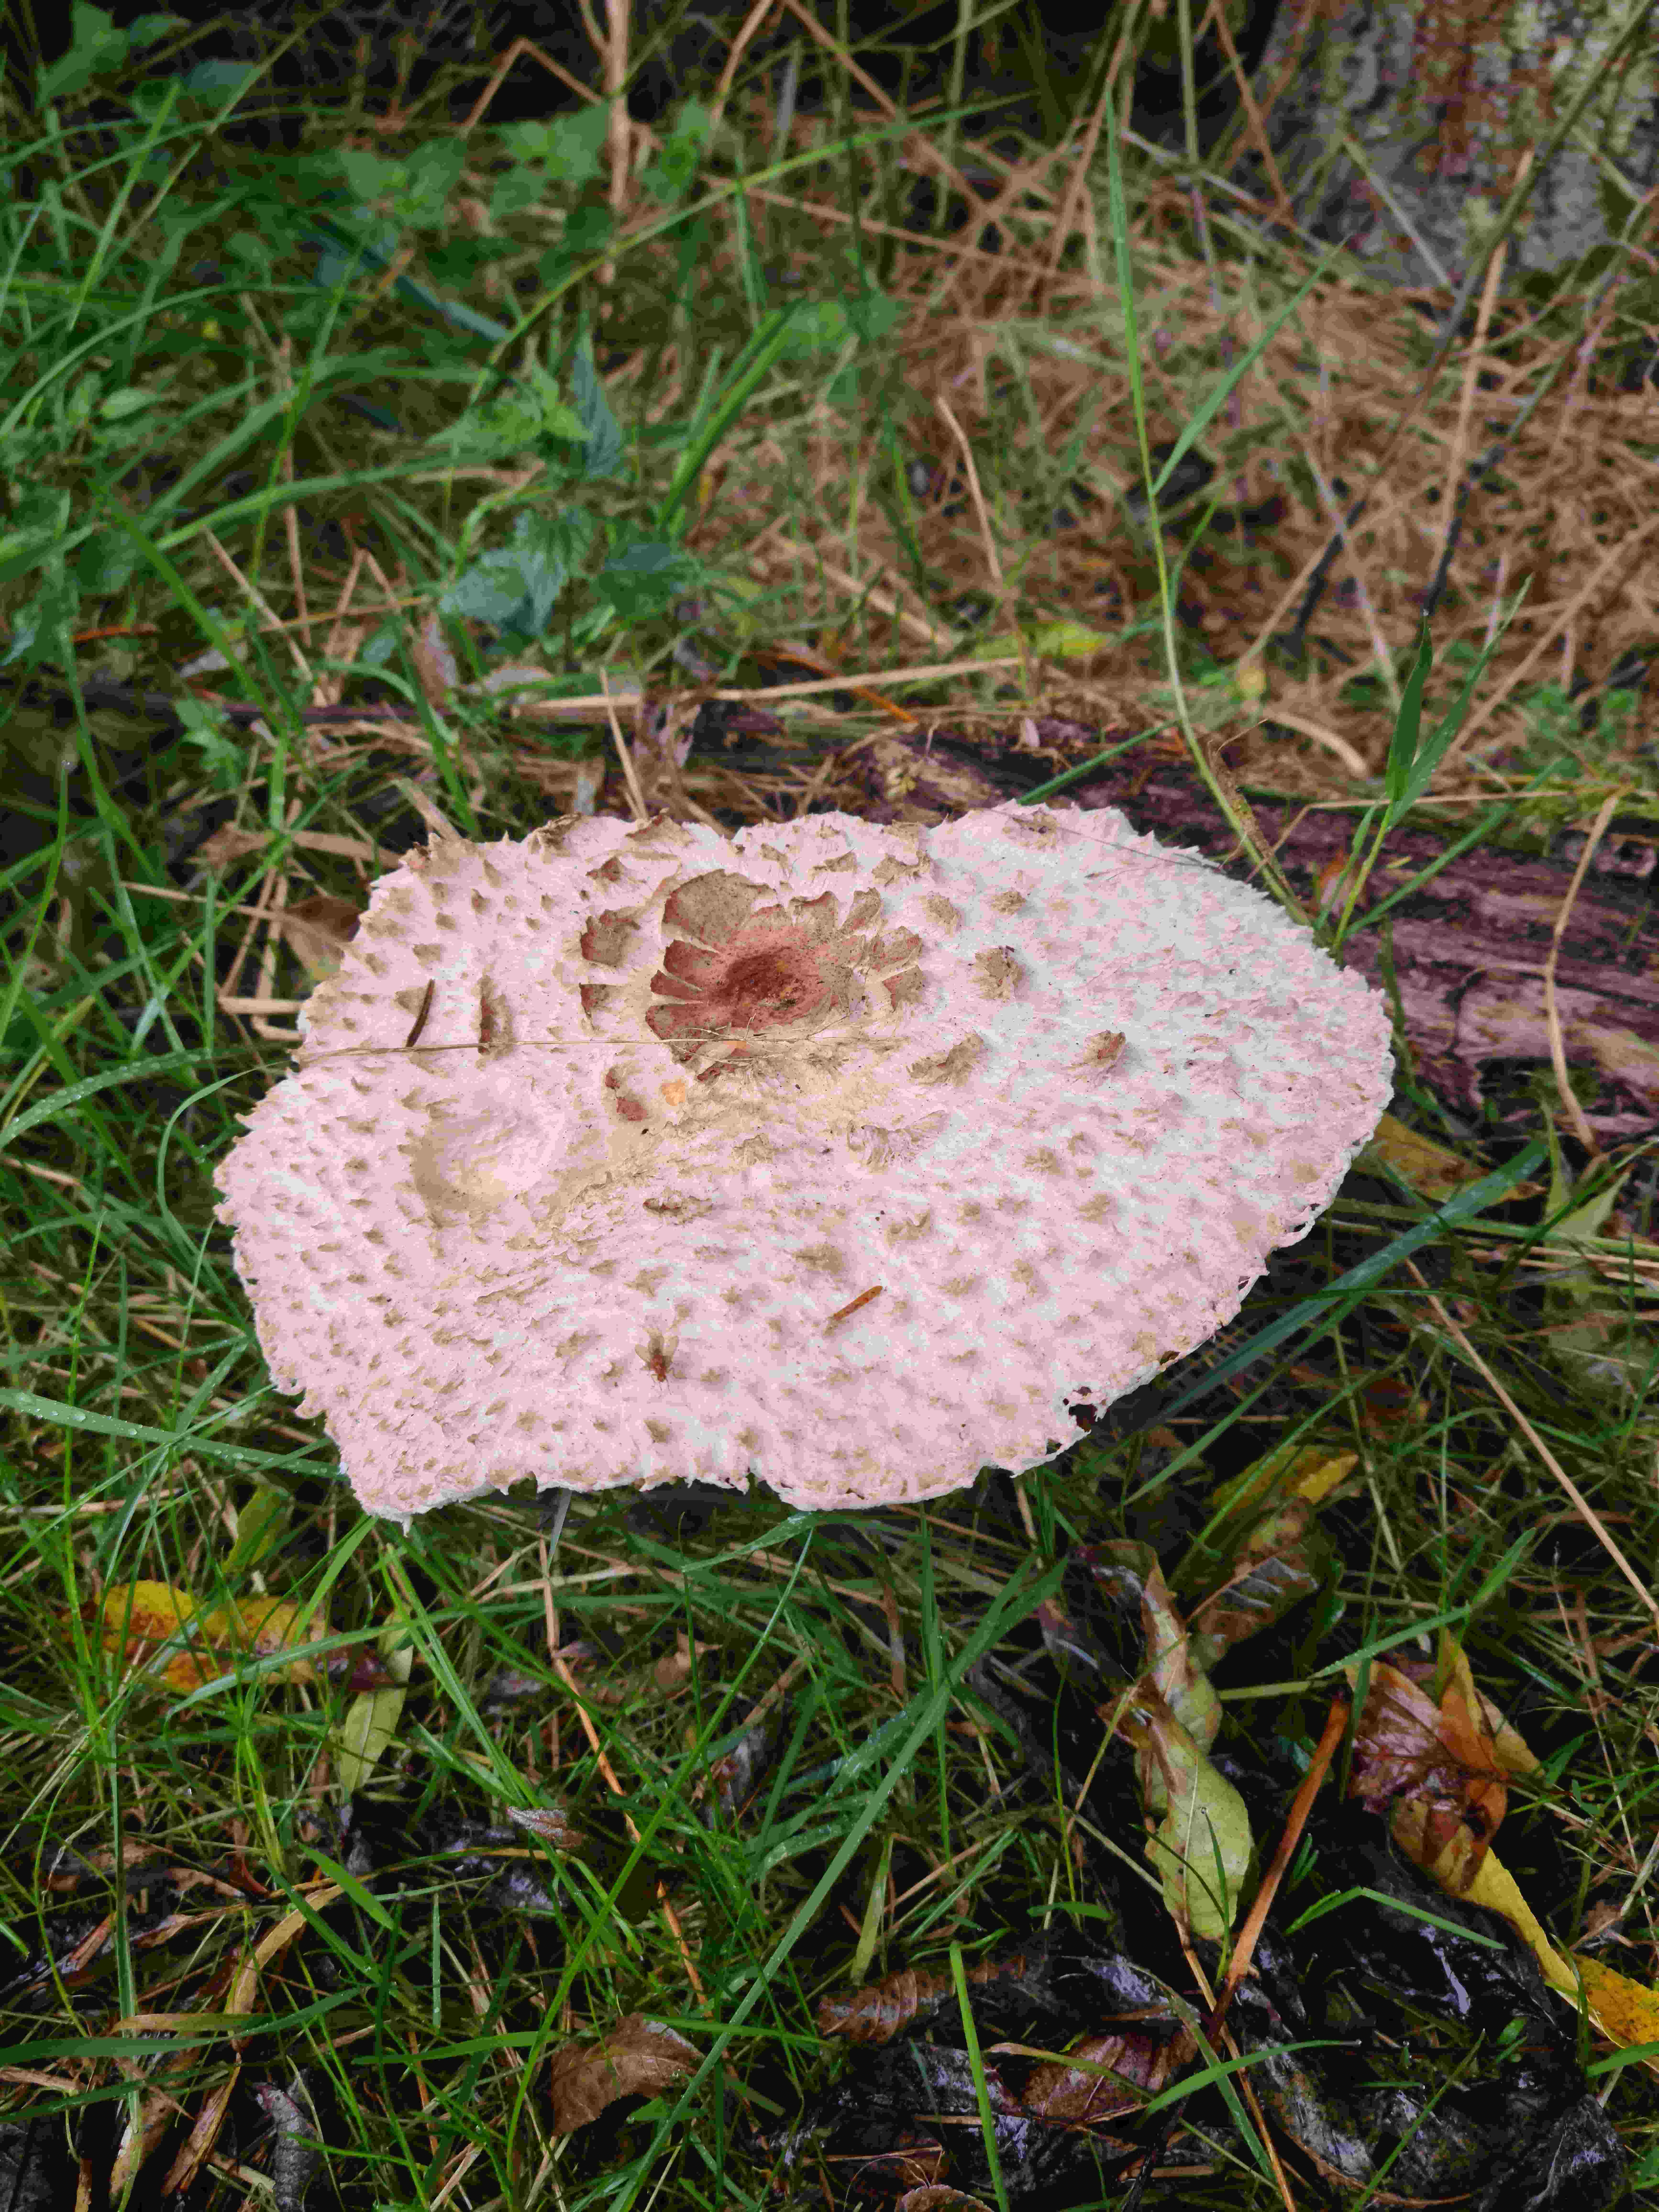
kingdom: Fungi
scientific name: Fungi
